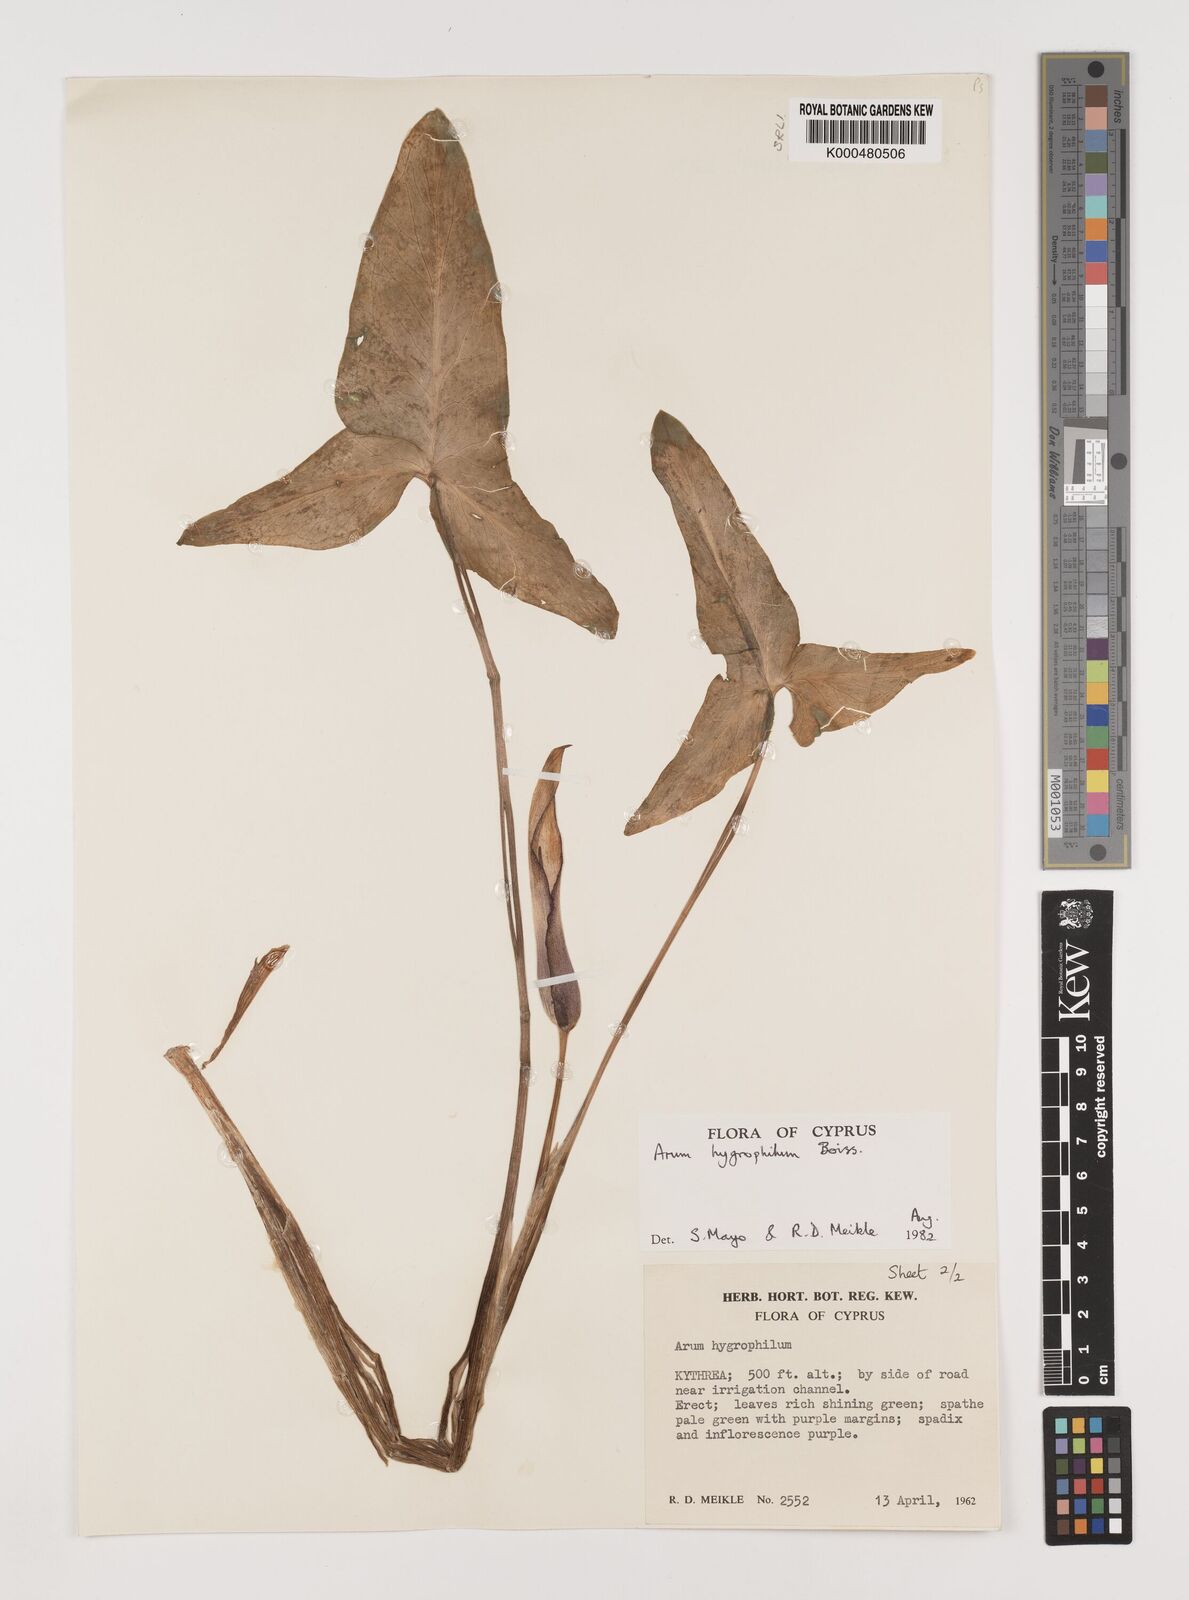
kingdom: Plantae
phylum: Tracheophyta
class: Liliopsida
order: Alismatales
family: Araceae
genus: Arum
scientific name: Arum hygrophilum
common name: Water arum
